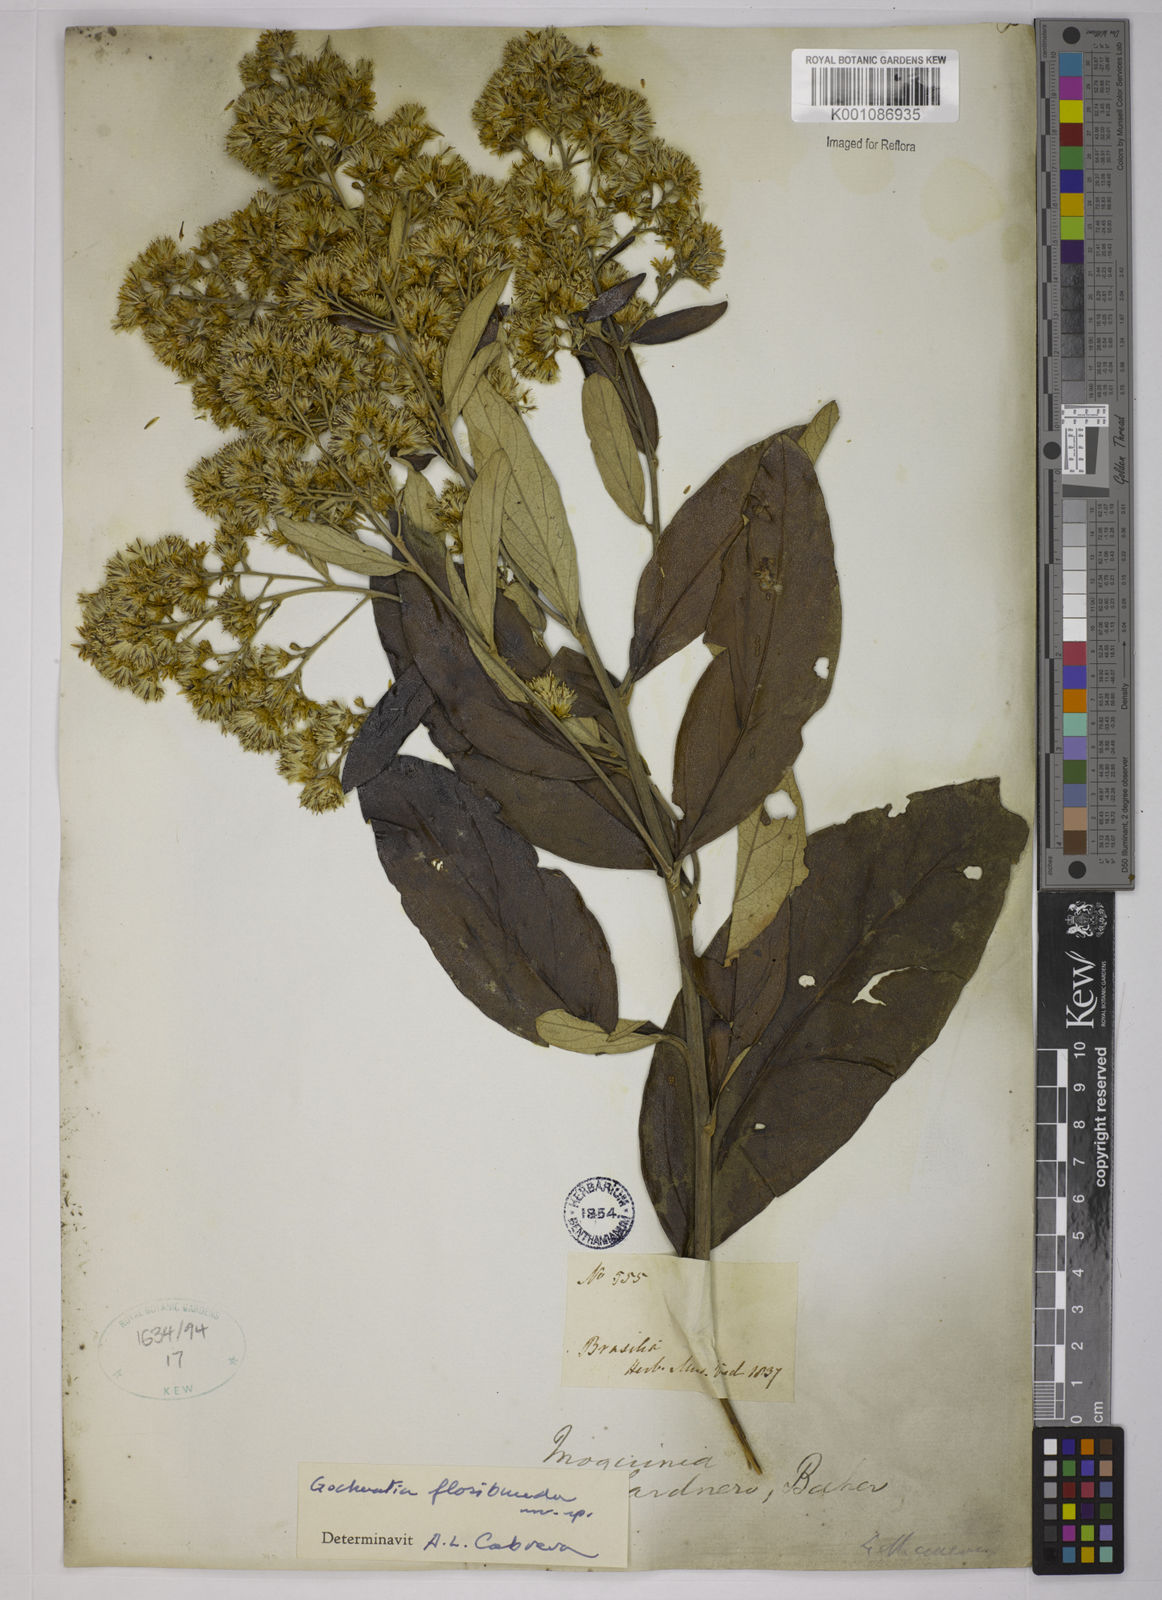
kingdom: Plantae
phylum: Tracheophyta
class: Magnoliopsida
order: Asterales
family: Asteraceae
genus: Moquiniastrum
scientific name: Moquiniastrum floribundum
